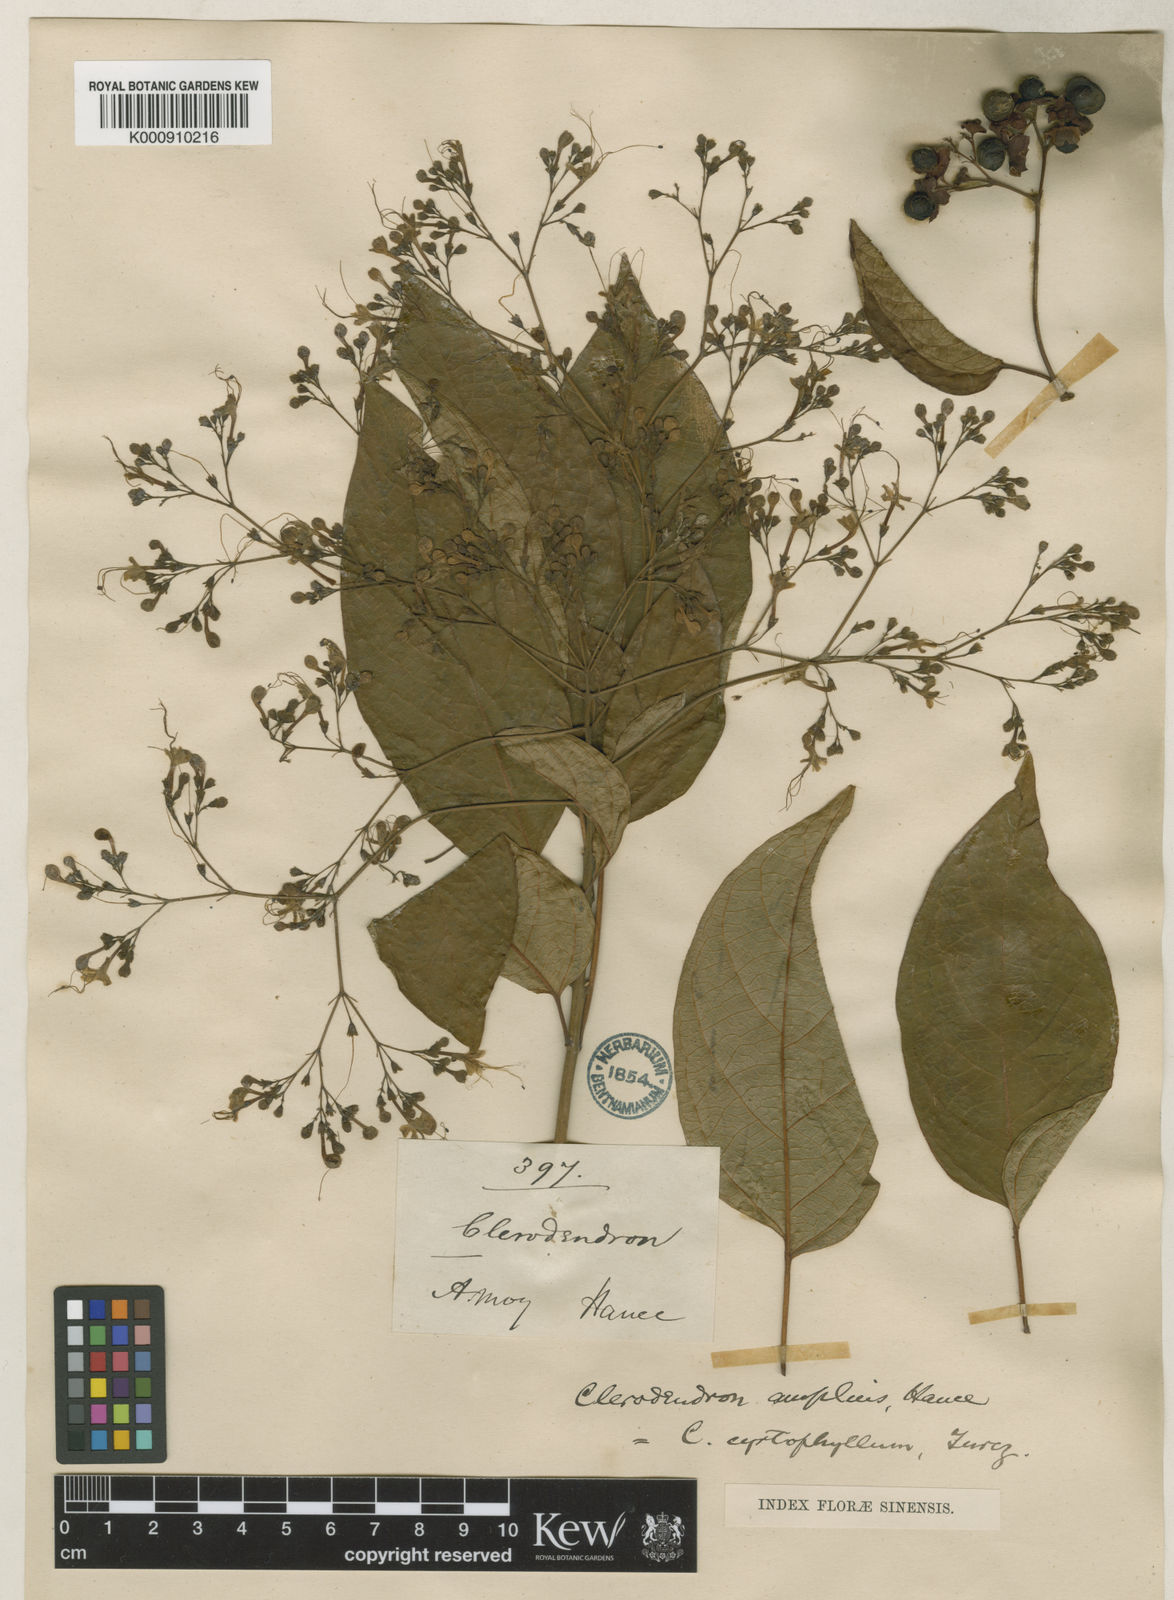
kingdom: Plantae
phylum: Tracheophyta
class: Magnoliopsida
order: Lamiales
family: Lamiaceae
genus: Clerodendrum
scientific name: Clerodendrum cyrtophyllum
